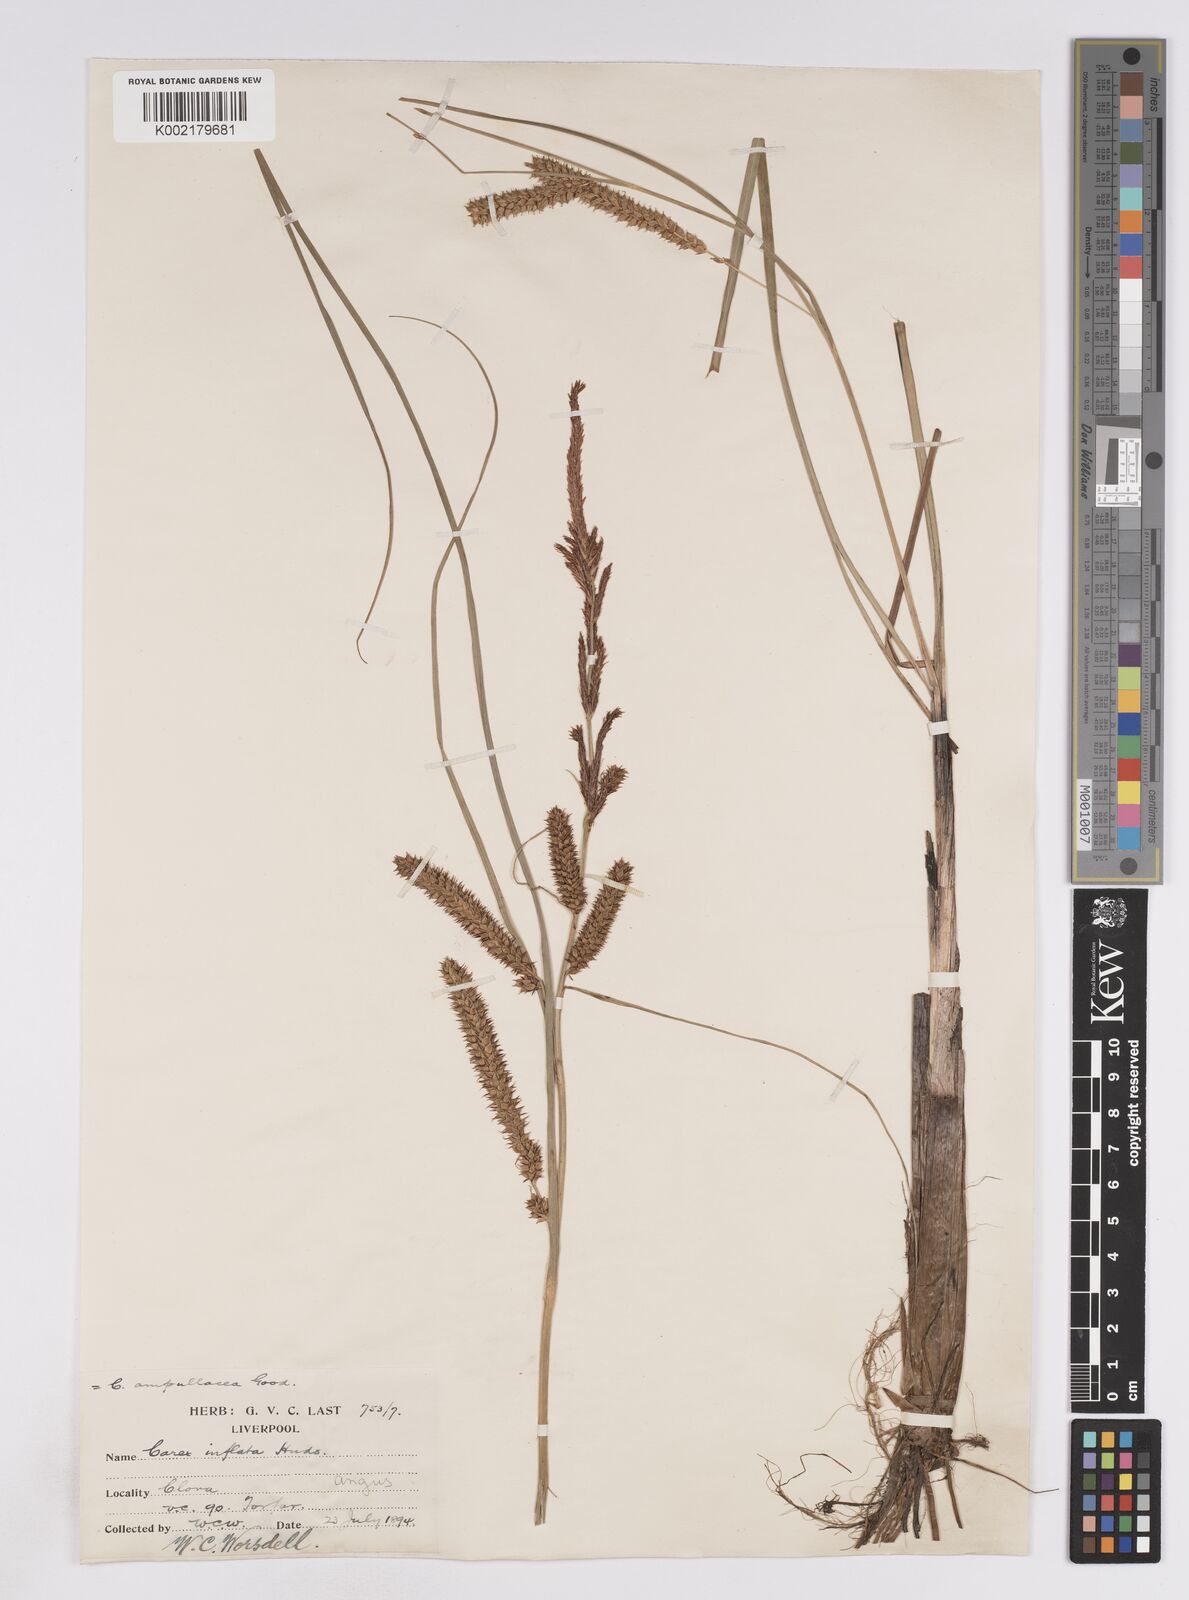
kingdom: Plantae
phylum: Tracheophyta
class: Liliopsida
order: Poales
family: Cyperaceae
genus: Carex
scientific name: Carex rostrata
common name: Bottle sedge
